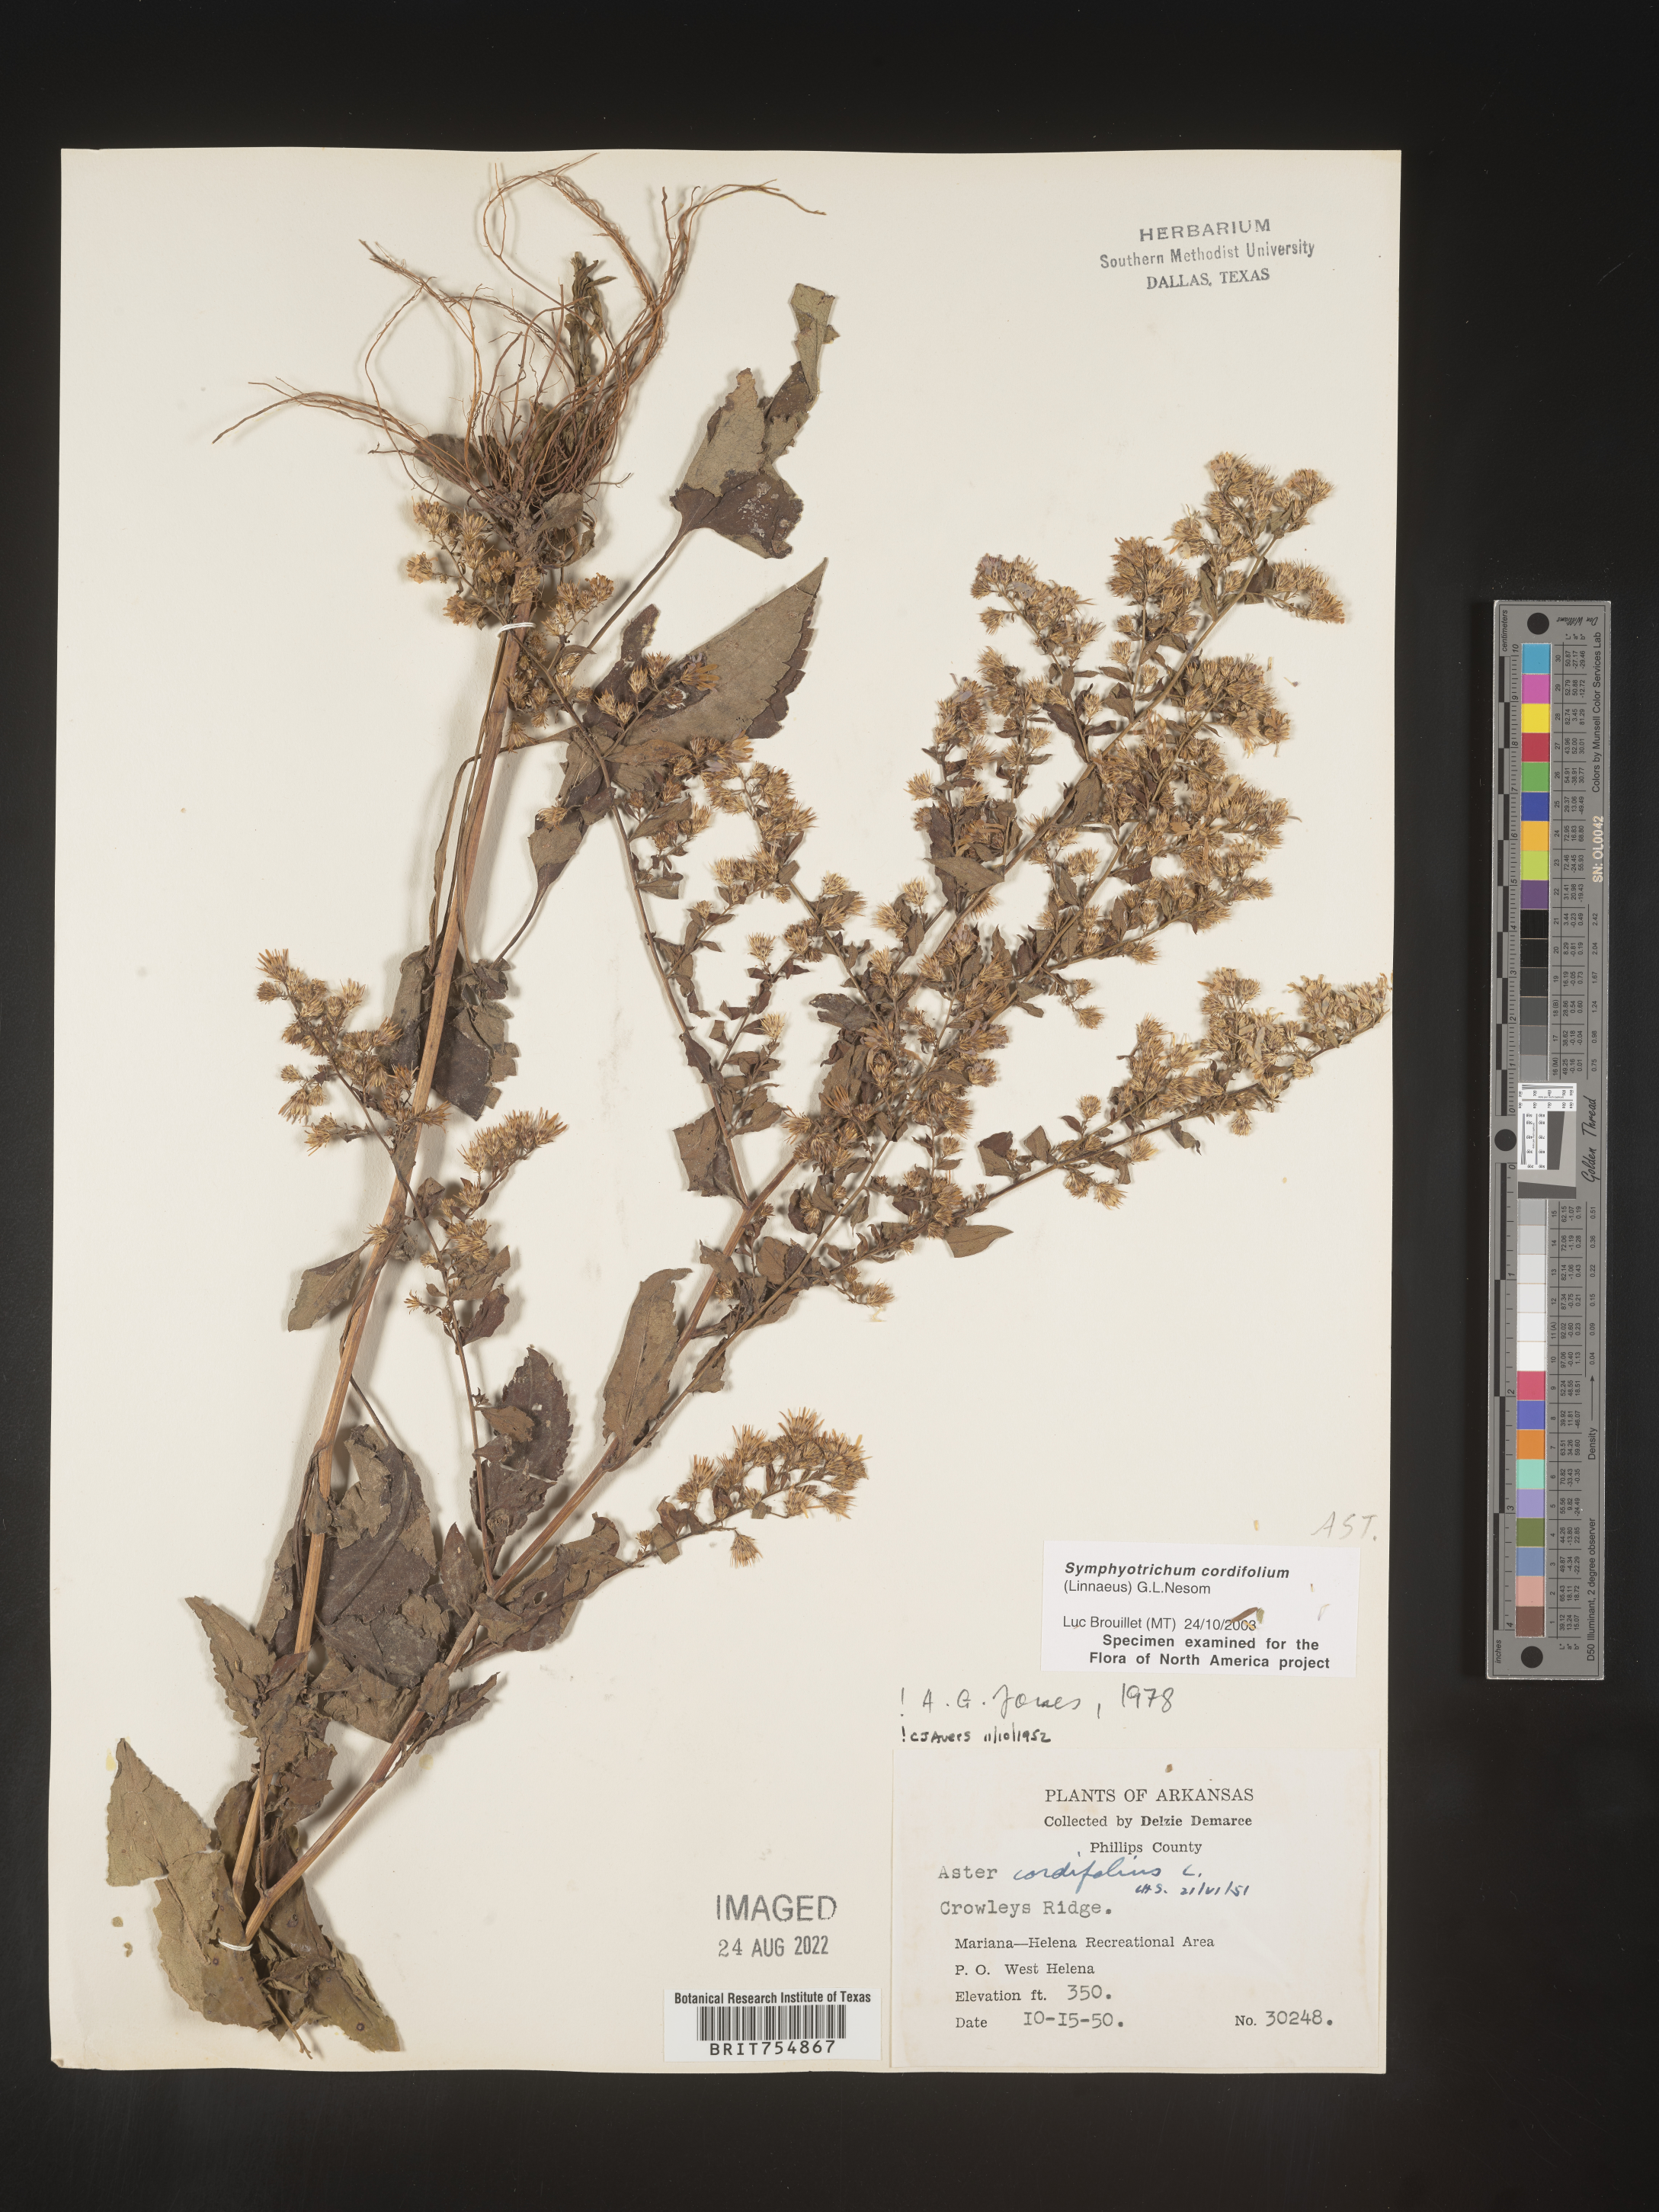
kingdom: Plantae
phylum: Tracheophyta
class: Magnoliopsida
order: Asterales
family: Asteraceae
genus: Symphyotrichum
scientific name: Symphyotrichum urophyllum
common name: Arrow-leaved aster
